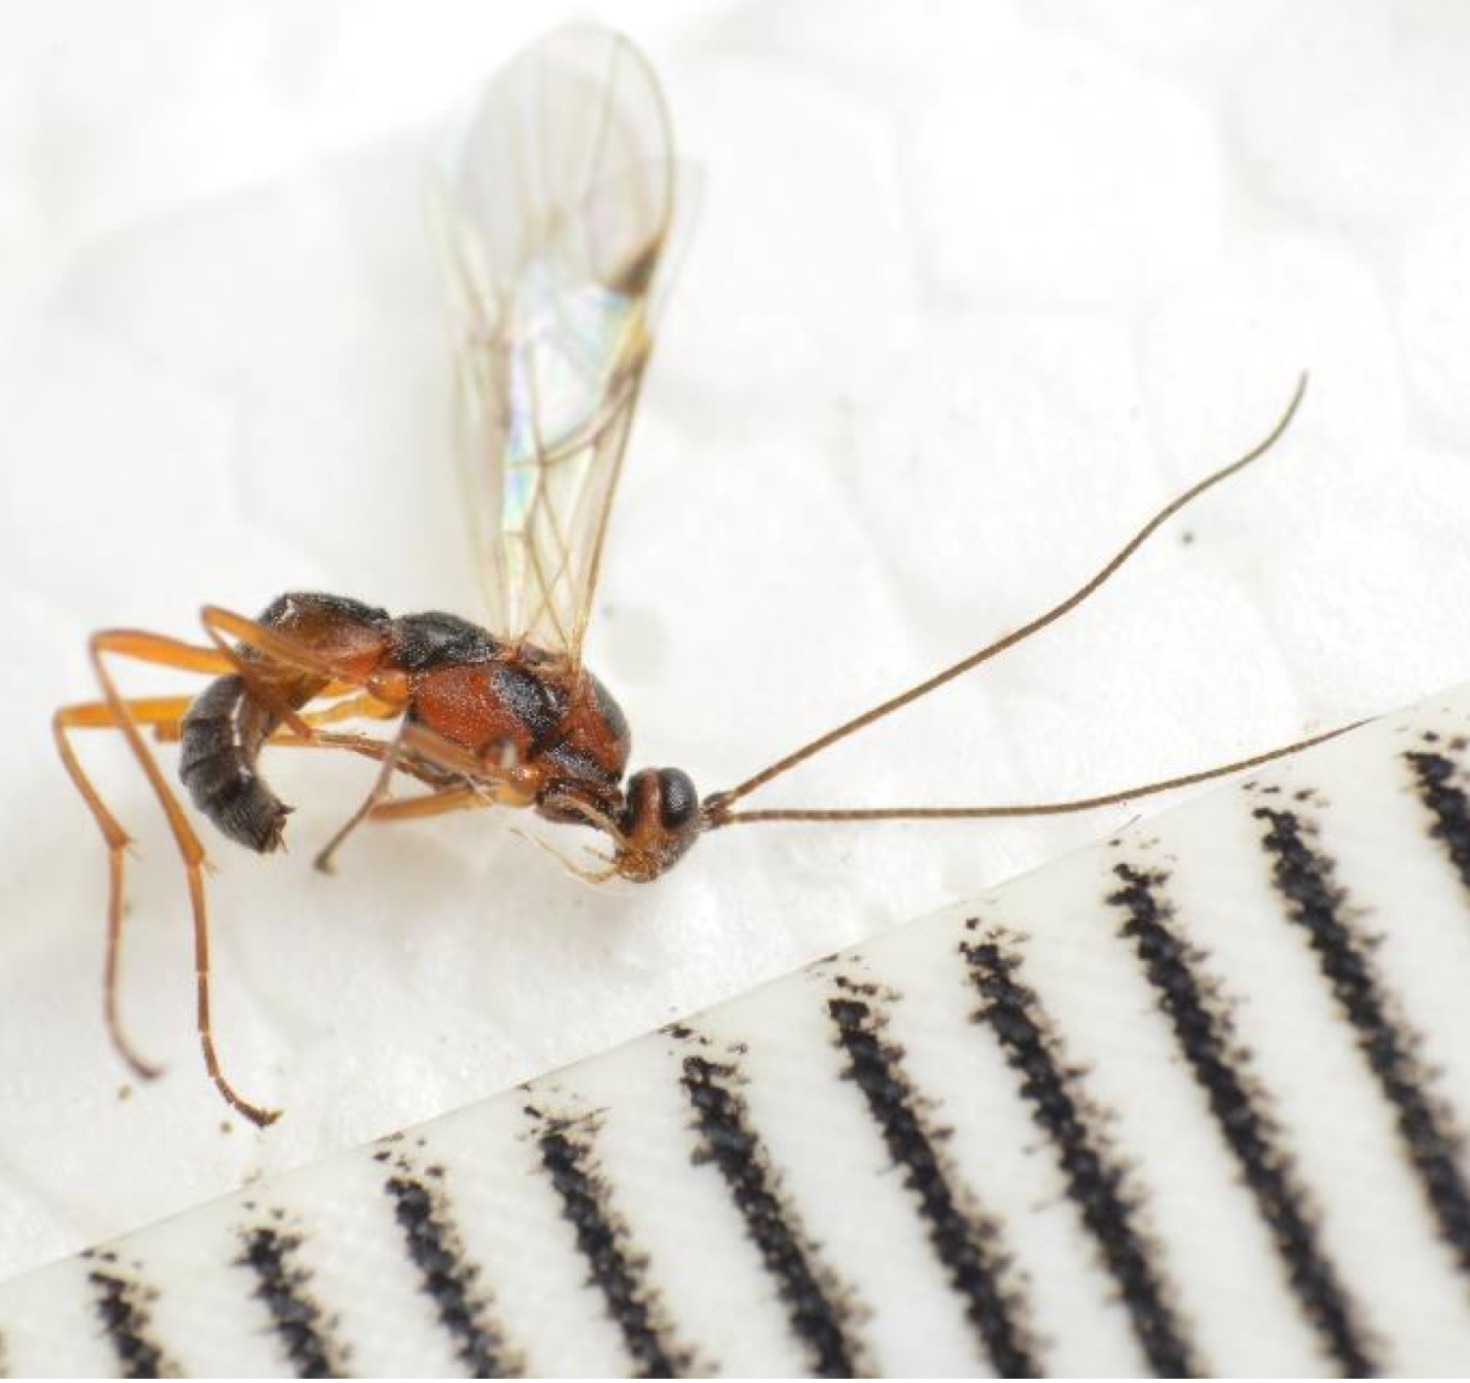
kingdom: Animalia
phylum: Arthropoda
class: Insecta
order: Hymenoptera
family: Braconidae
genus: Aleiodes
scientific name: Aleiodes leptofemur
